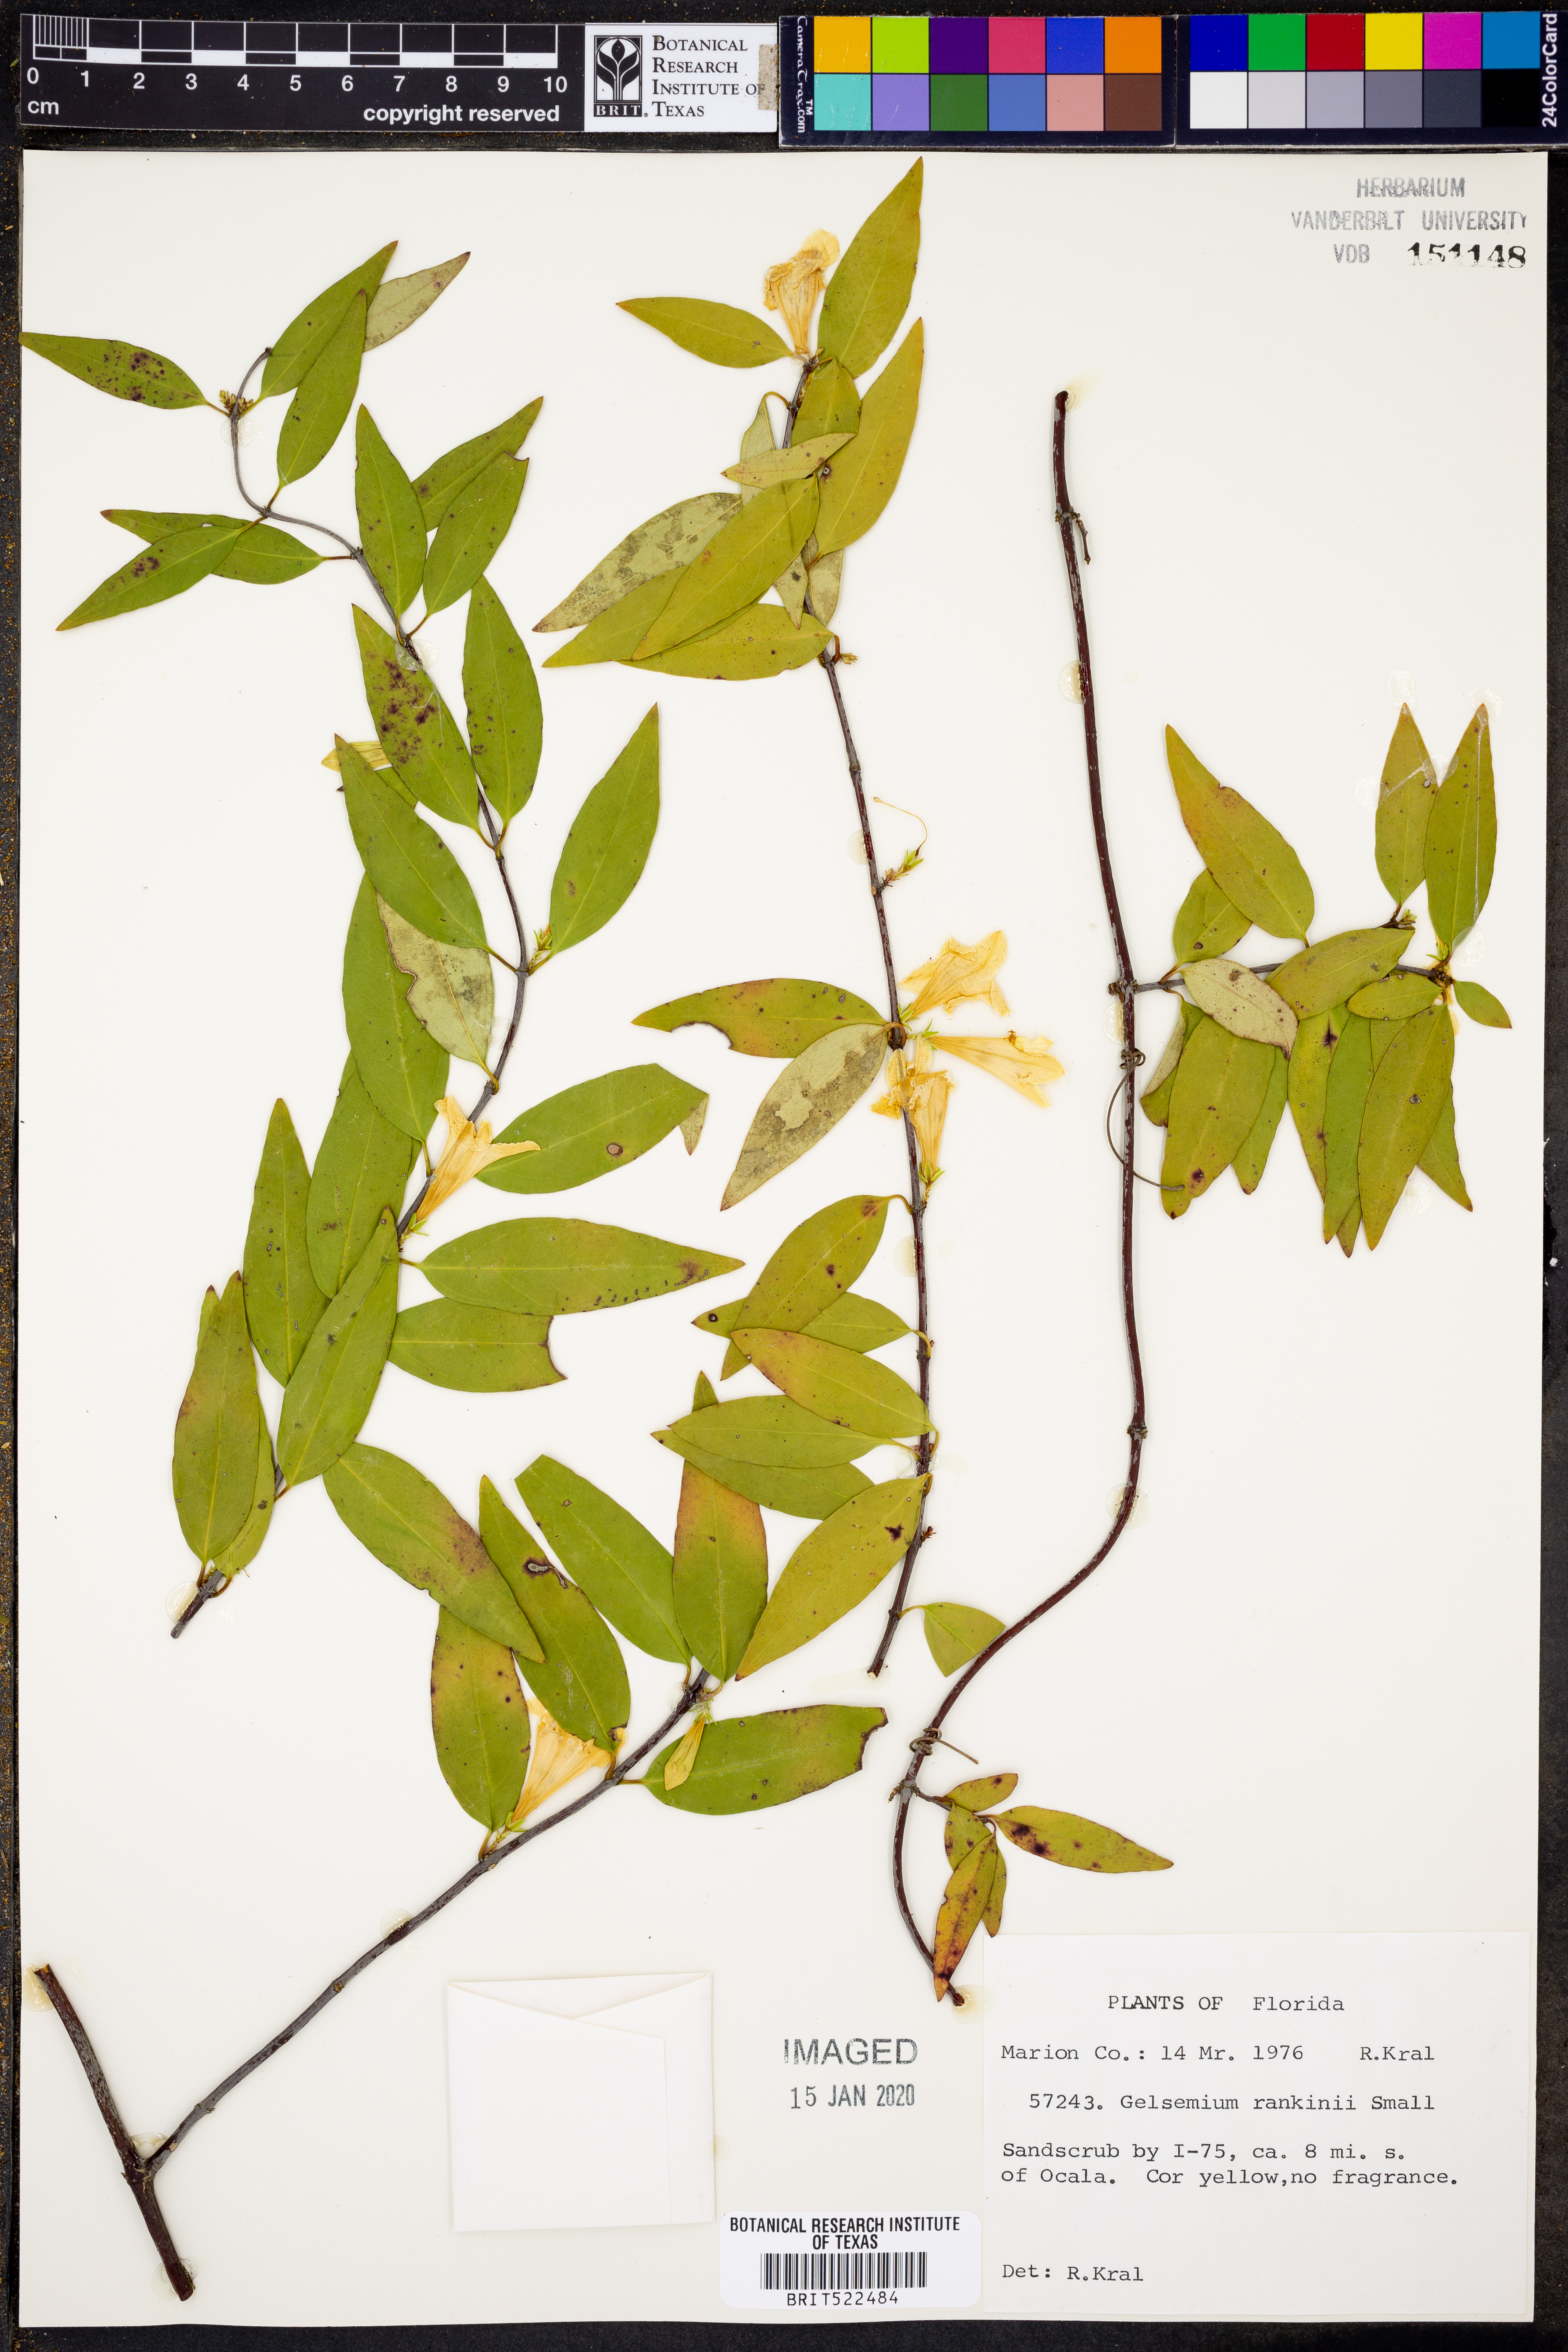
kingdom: Plantae
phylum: Tracheophyta
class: Magnoliopsida
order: Gentianales
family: Gelsemiaceae
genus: Gelsemium
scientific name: Gelsemium rankinii
